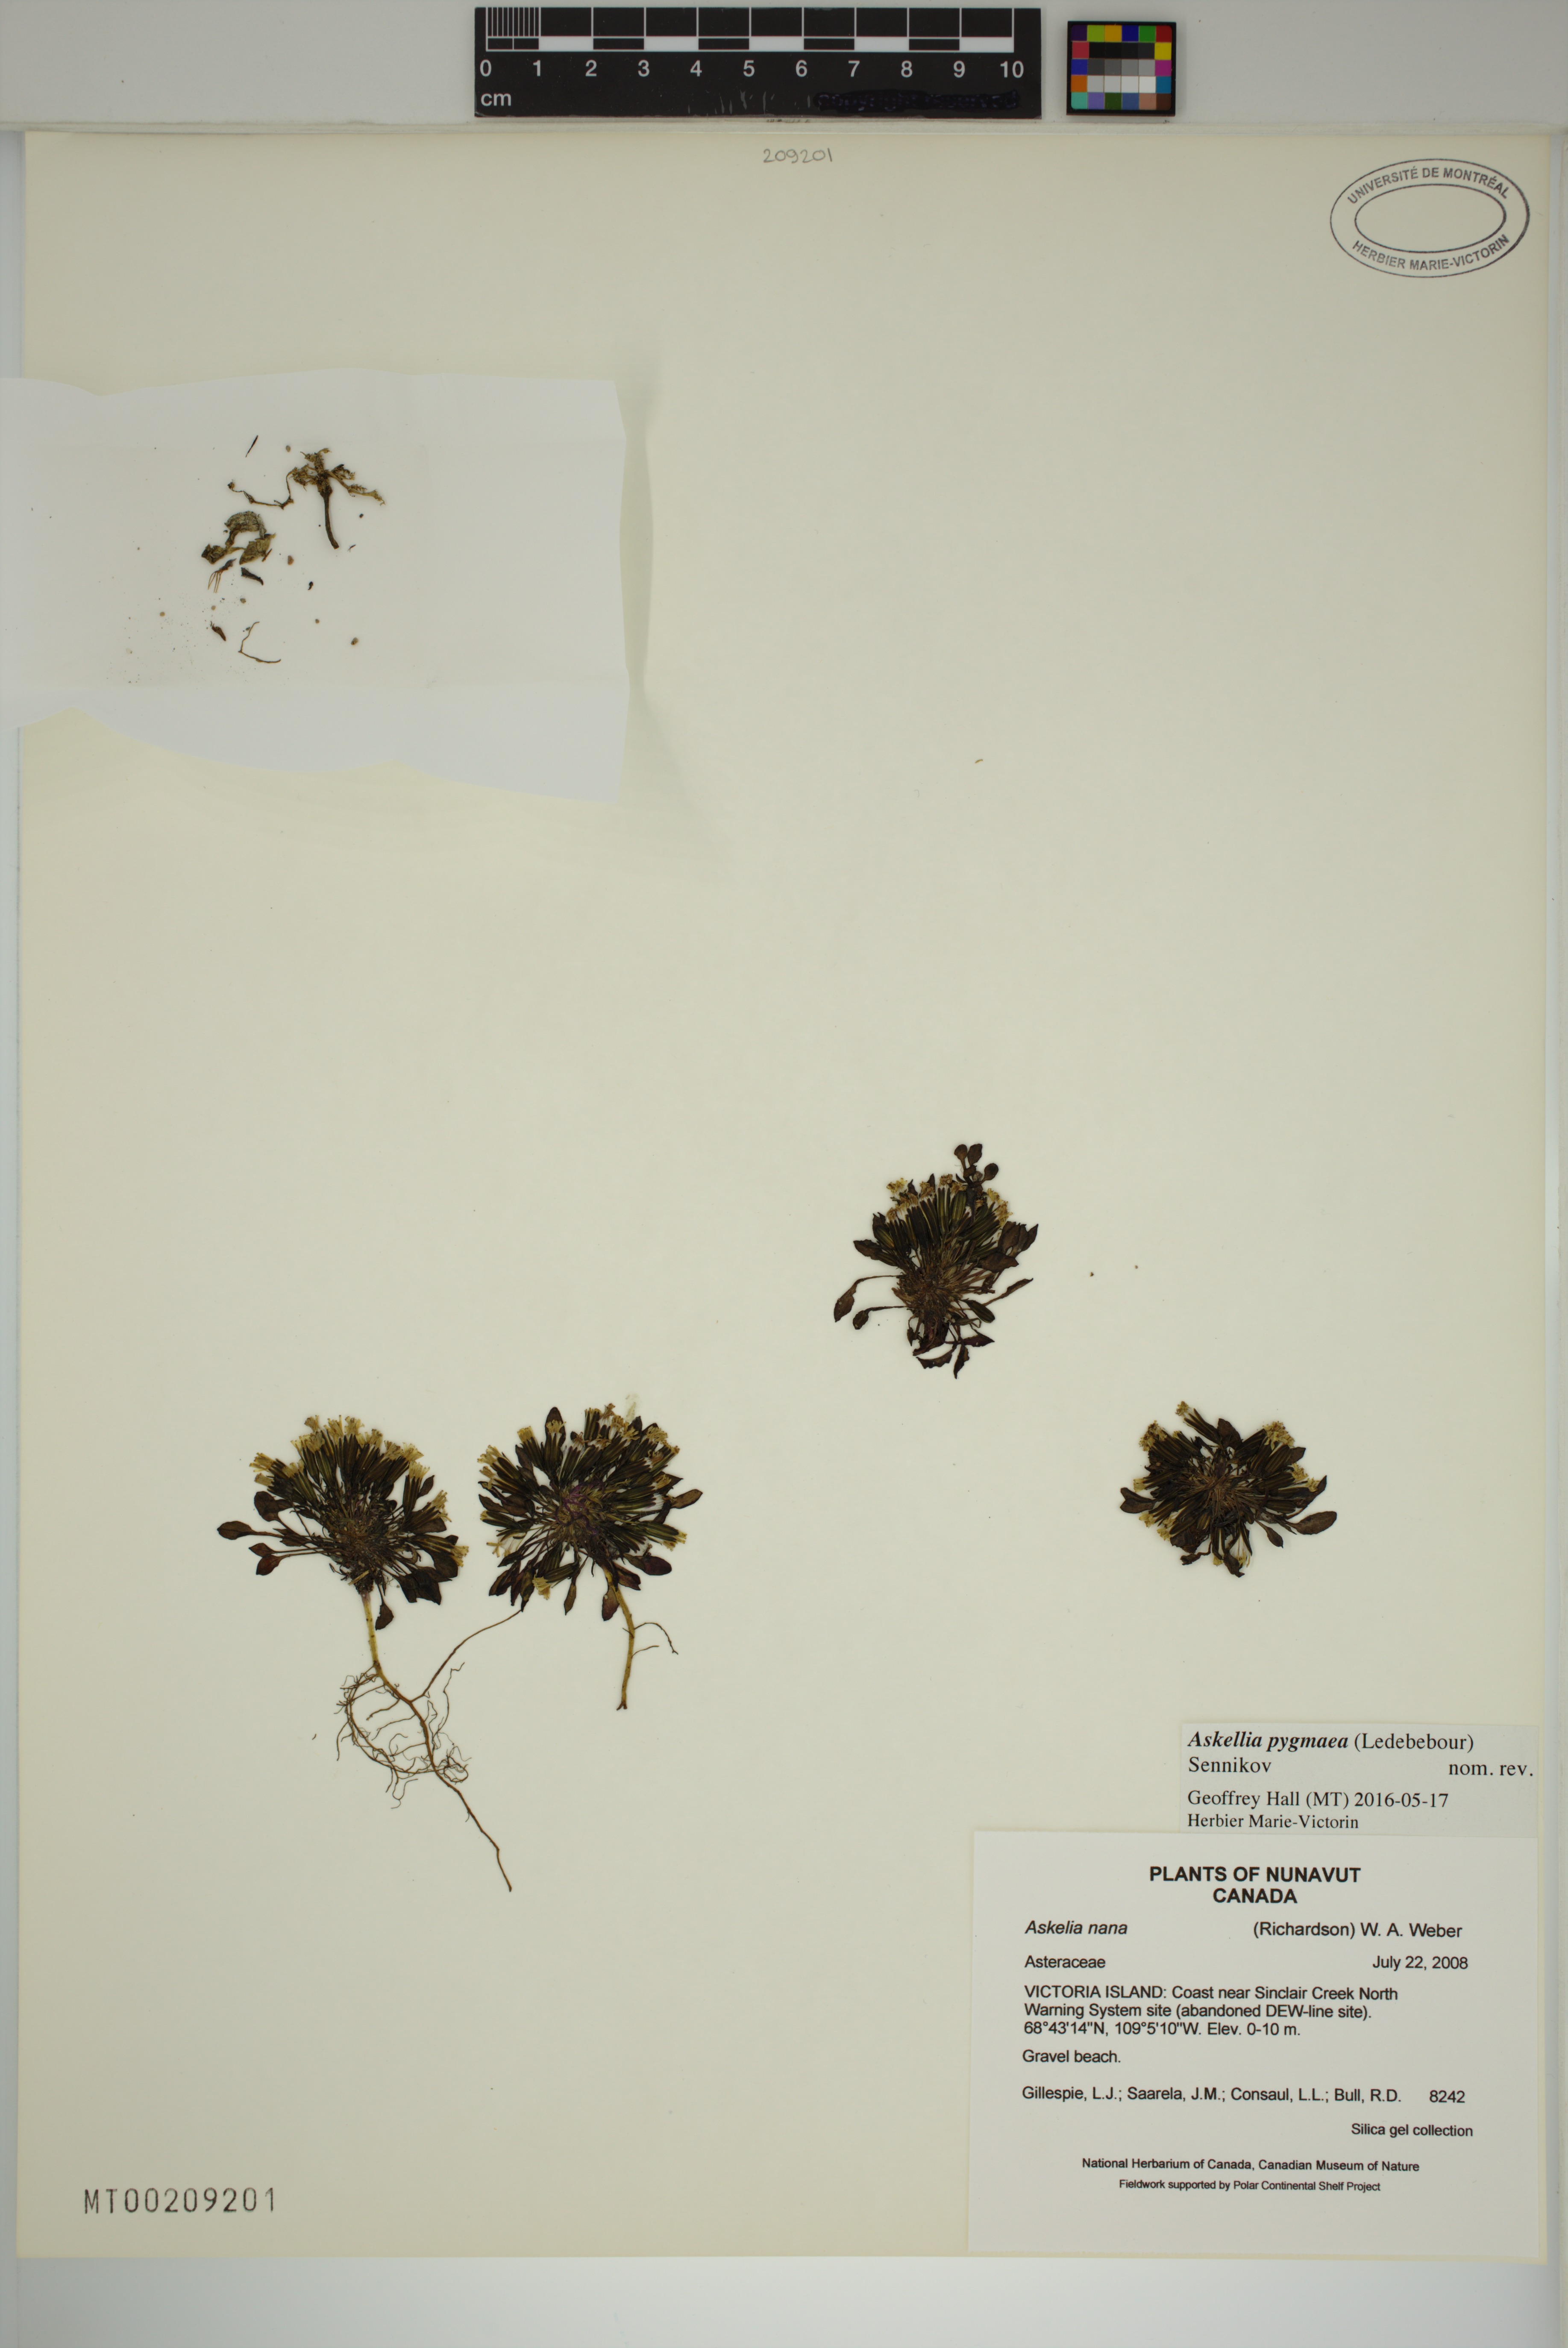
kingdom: Plantae
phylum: Tracheophyta
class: Magnoliopsida
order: Asterales
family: Asteraceae
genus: Askellia
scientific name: Askellia pygmaea
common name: Dwarf alpine hawksbeard
